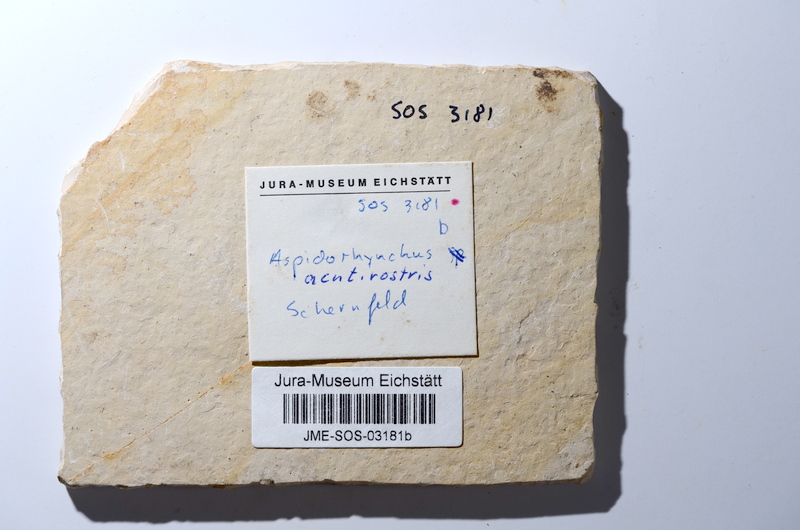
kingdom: Animalia
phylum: Chordata
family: Aspidorhynchidae
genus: Aspidorhynchus
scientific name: Aspidorhynchus acutirostris
